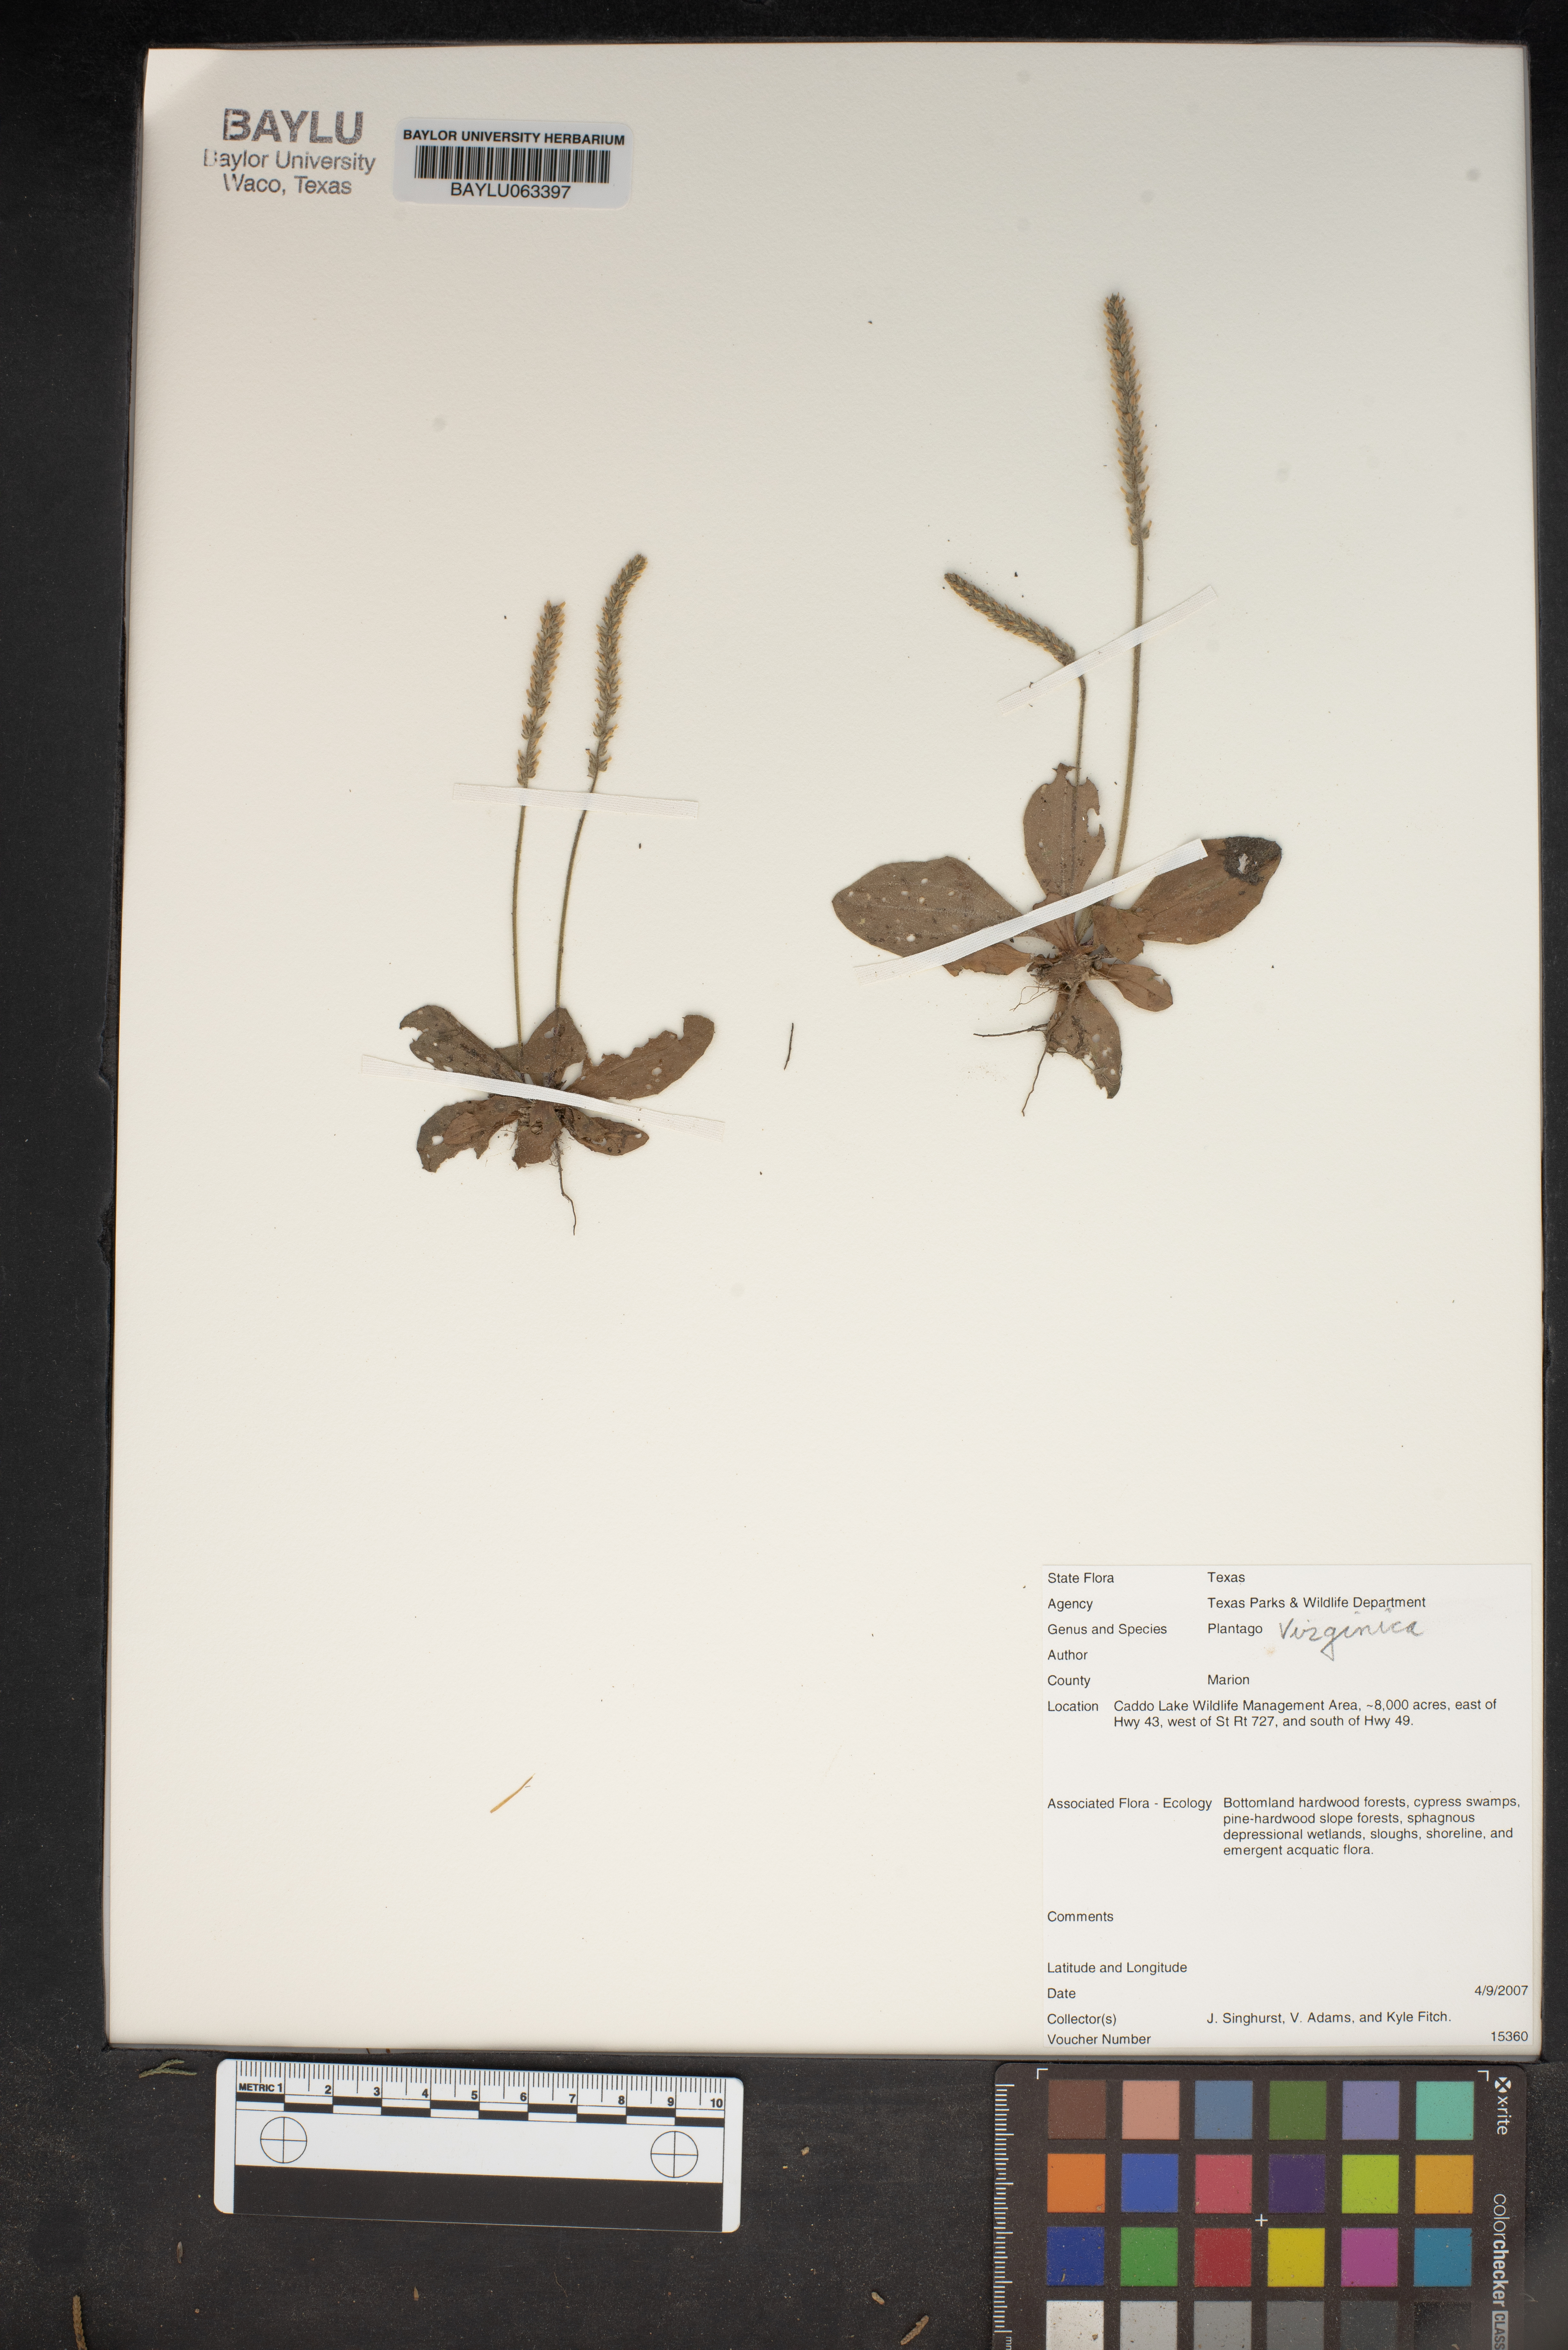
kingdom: Plantae
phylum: Tracheophyta
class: Magnoliopsida
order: Lamiales
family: Plantaginaceae
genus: Plantago
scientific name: Plantago virginica
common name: Hoary plantain
